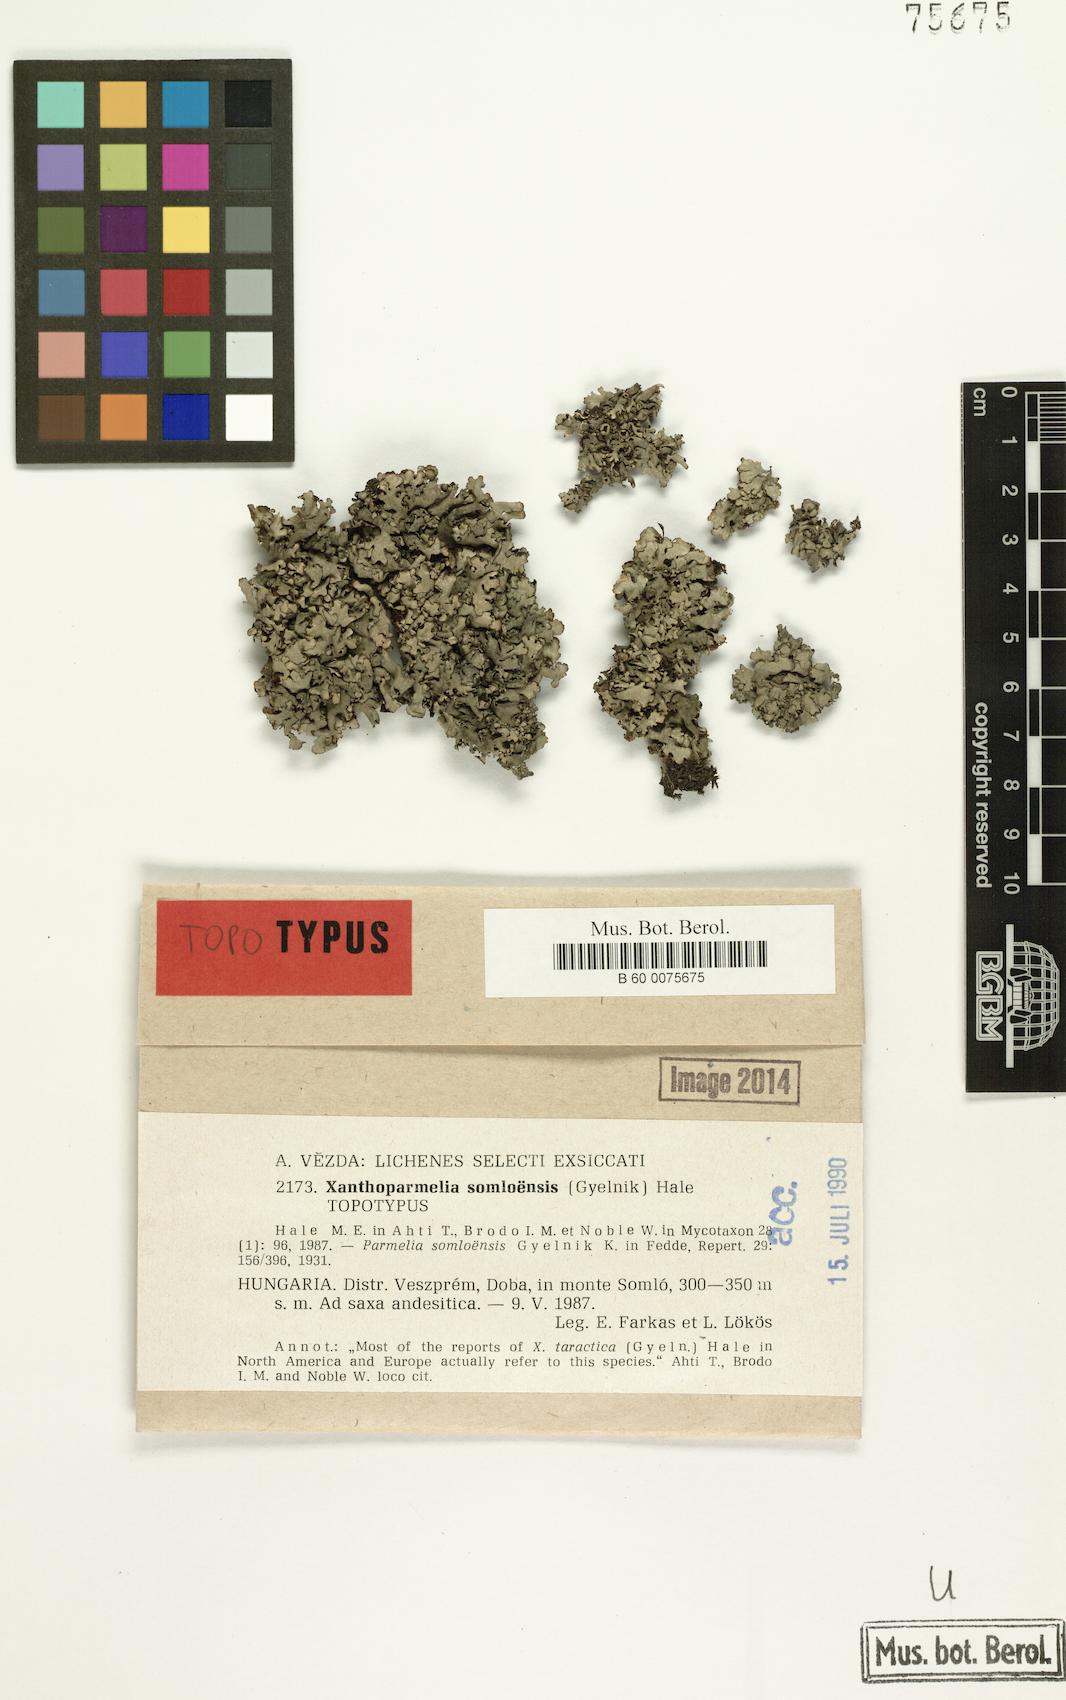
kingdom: Fungi
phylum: Ascomycota
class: Lecanoromycetes
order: Lecanorales
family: Parmeliaceae
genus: Xanthoparmelia
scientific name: Xanthoparmelia stenophylla
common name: Shingled rock shield
